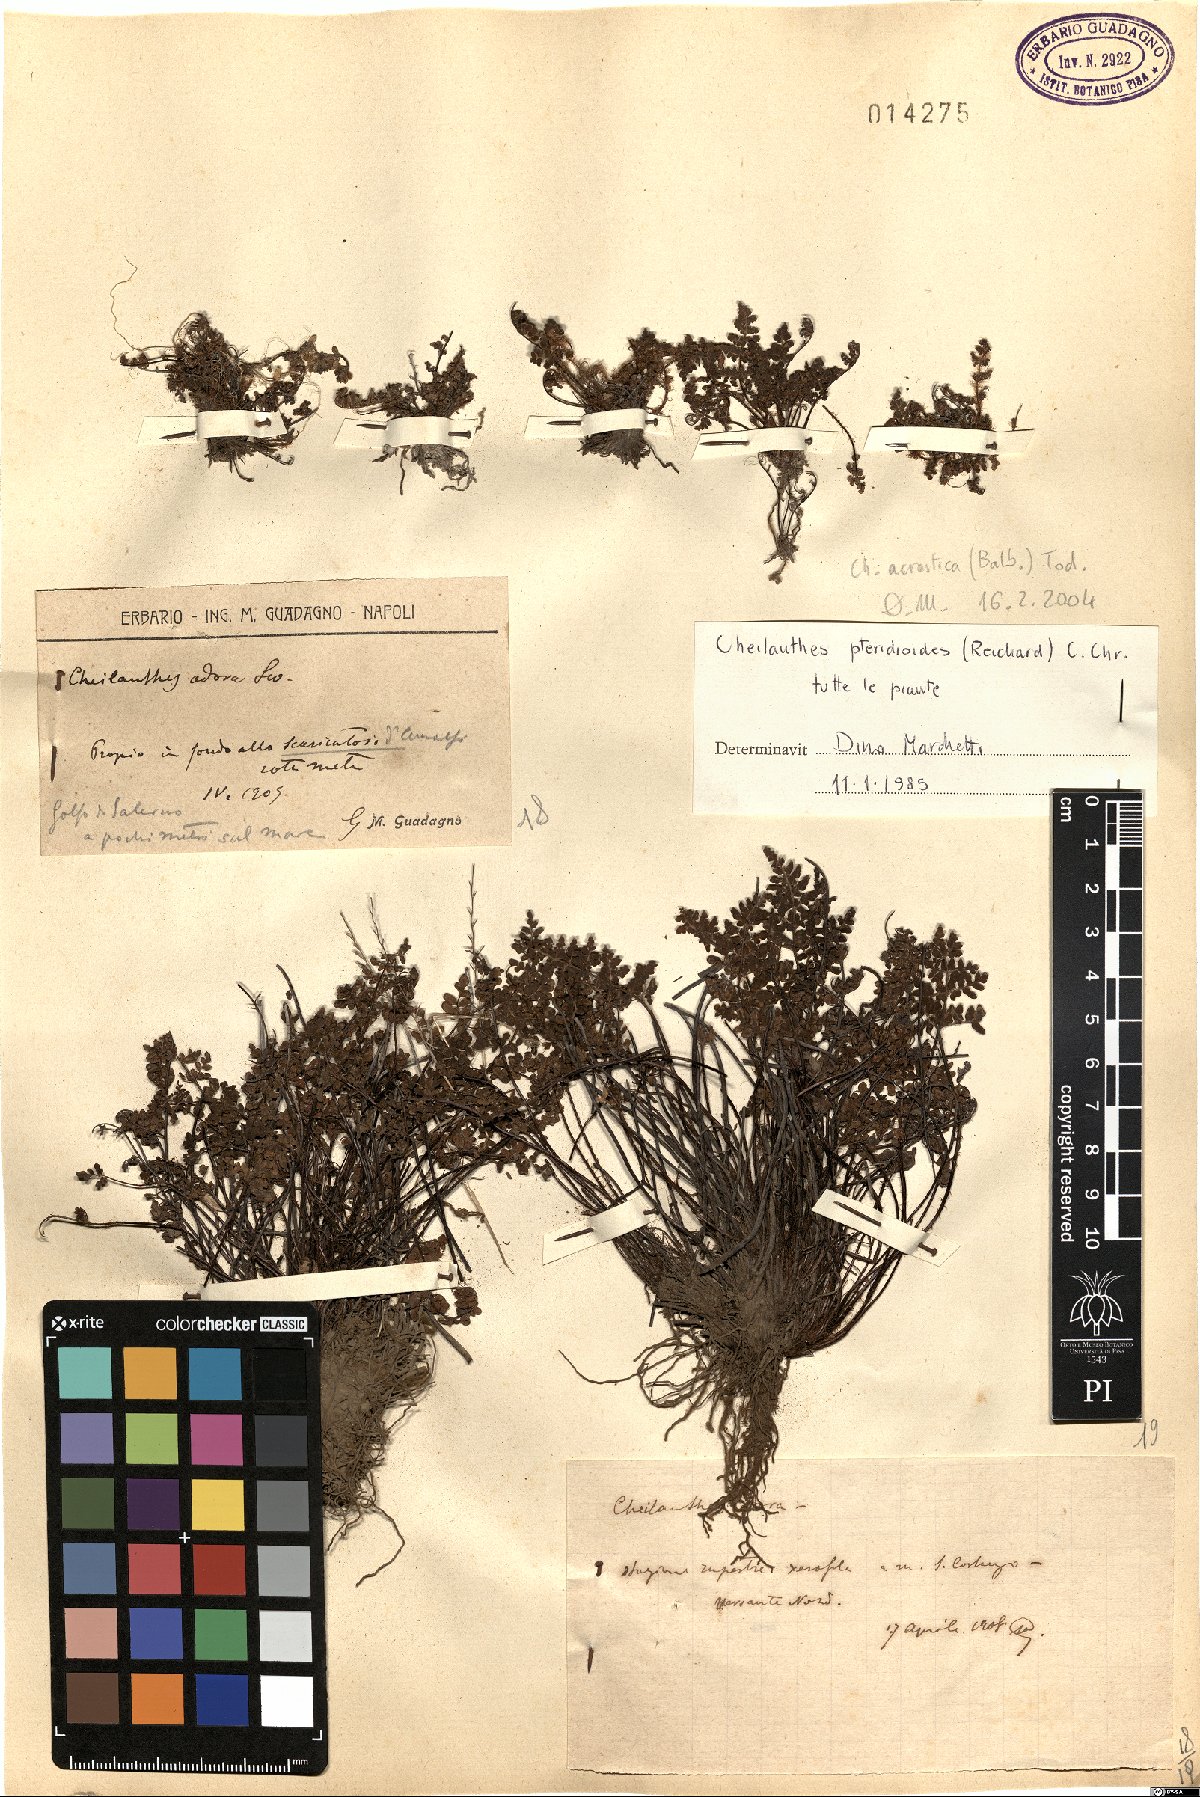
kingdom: Plantae
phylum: Tracheophyta
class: Polypodiopsida
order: Polypodiales
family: Pteridaceae
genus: Oeosporangium
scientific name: Oeosporangium pteridioides
